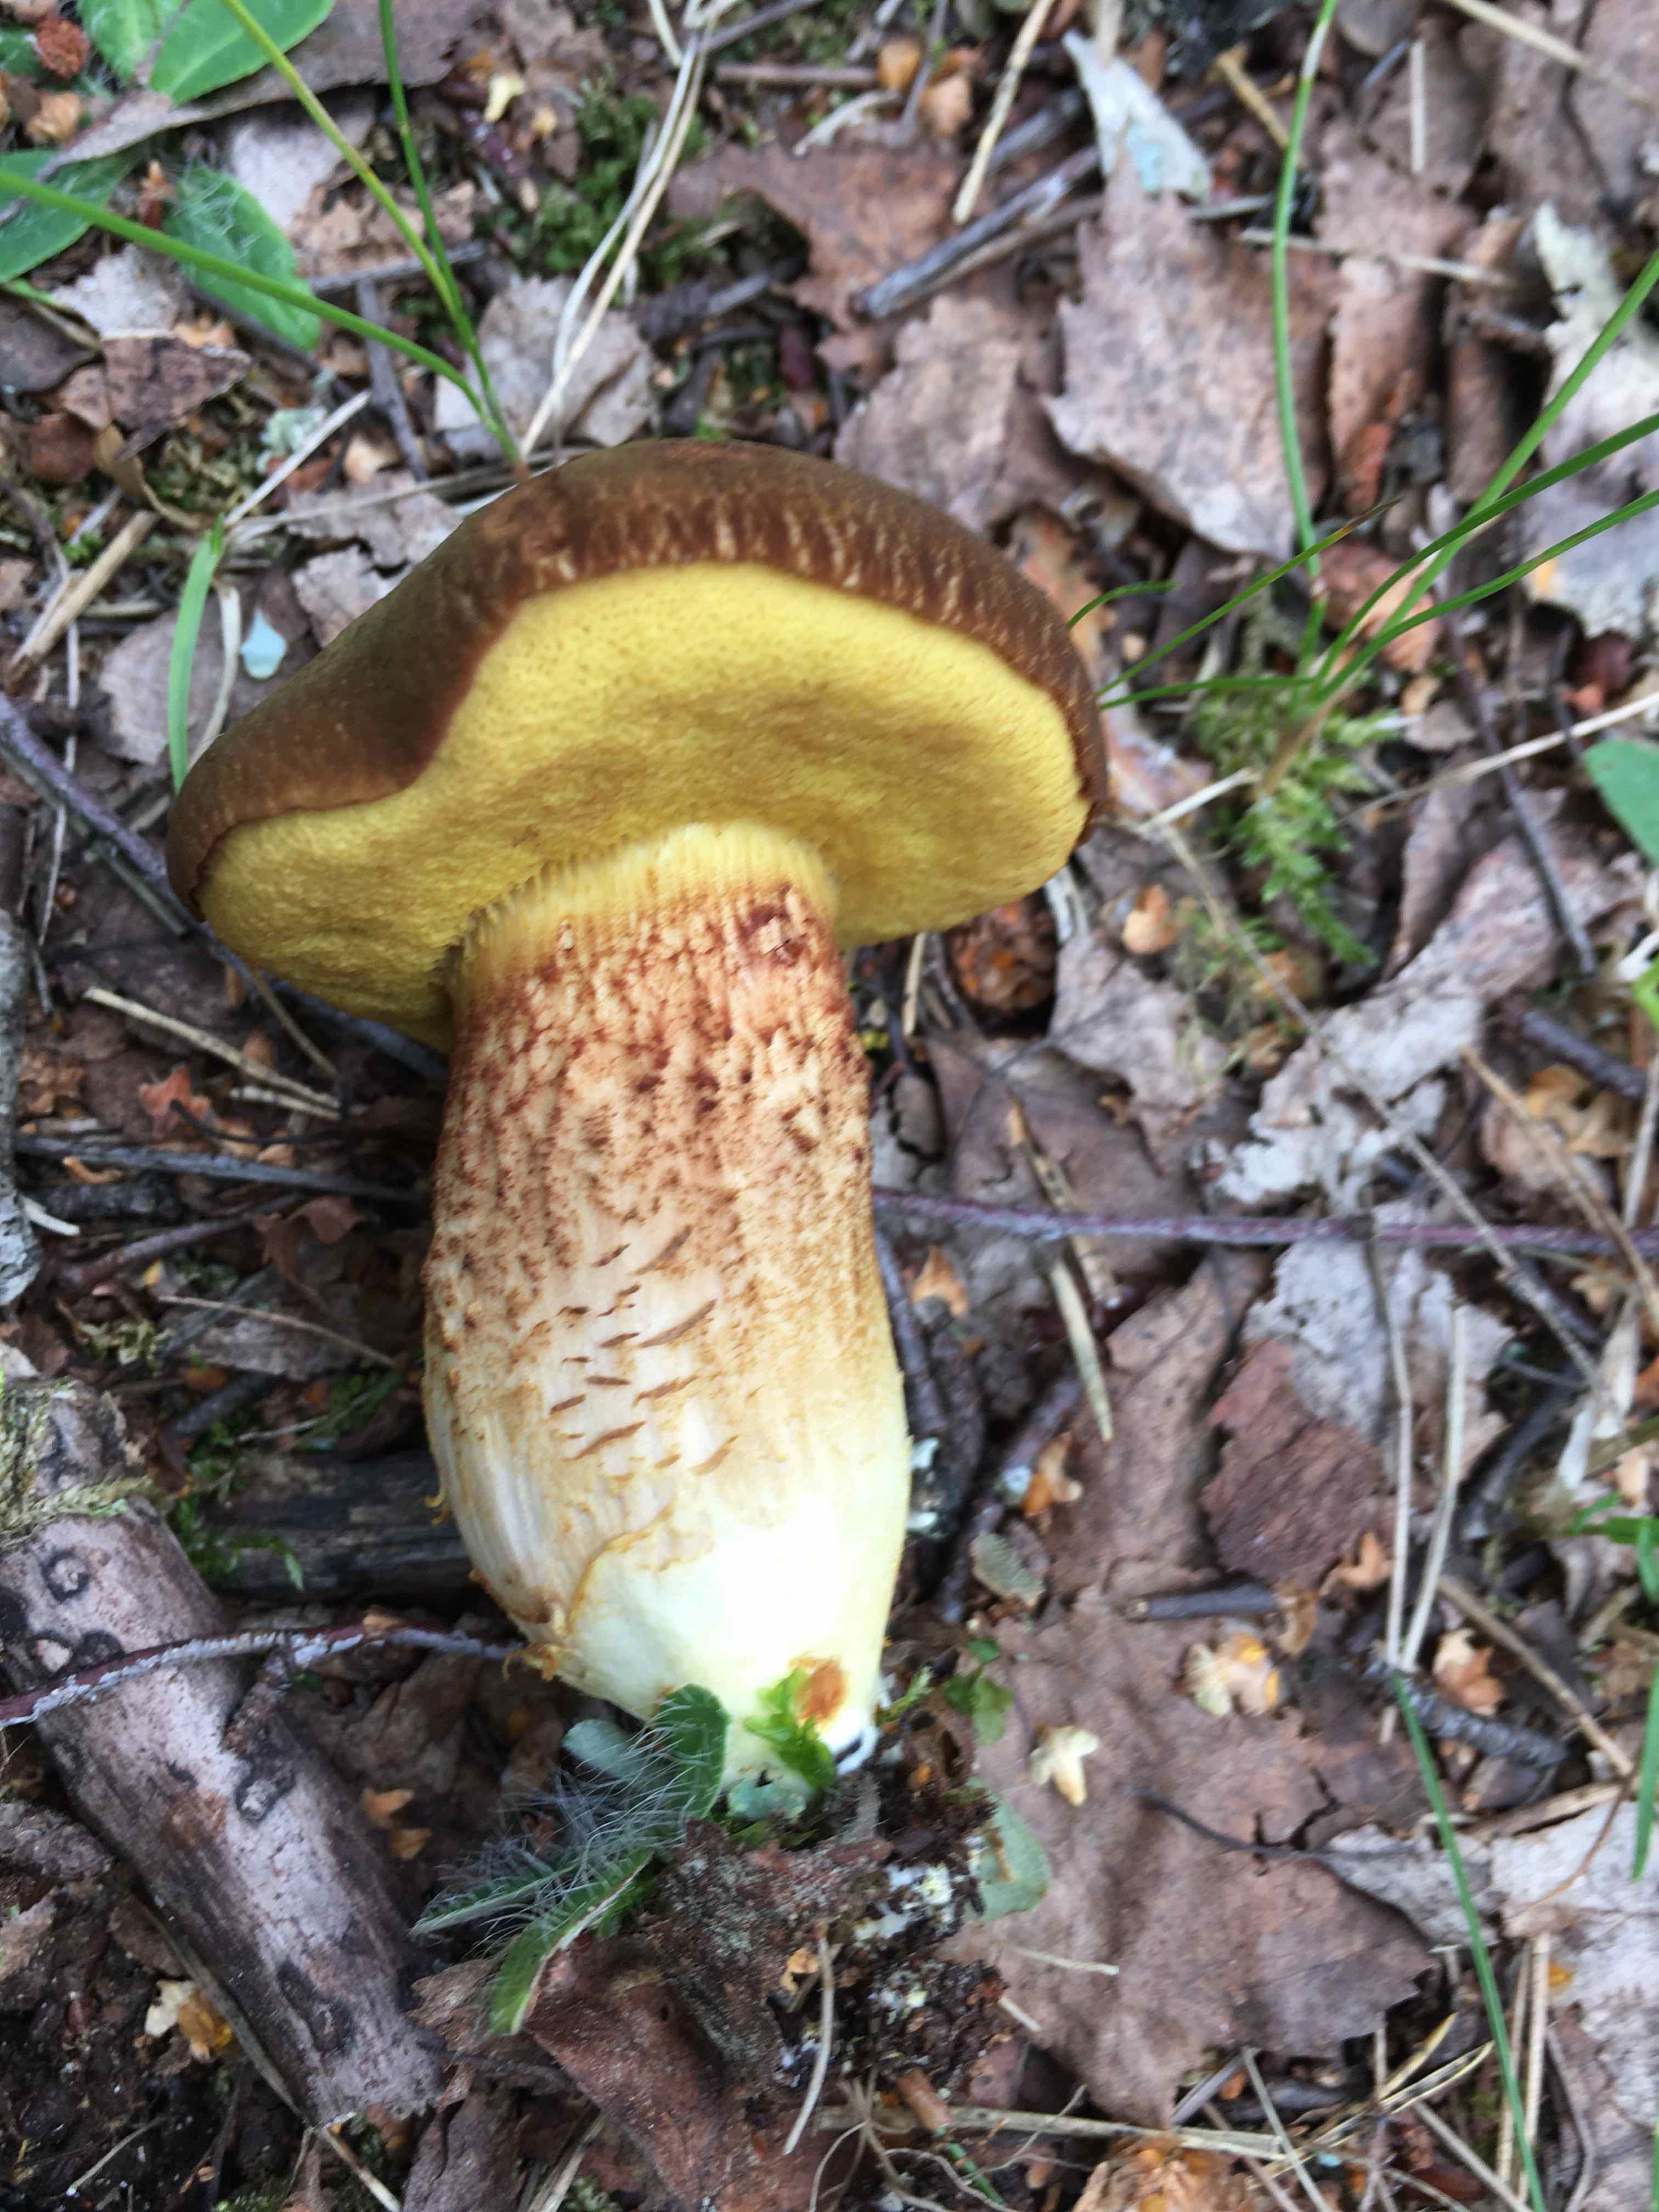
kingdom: Fungi
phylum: Basidiomycota
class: Agaricomycetes
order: Boletales
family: Boletaceae
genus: Xerocomus
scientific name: Xerocomus subtomentosus
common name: filtet rørhat
